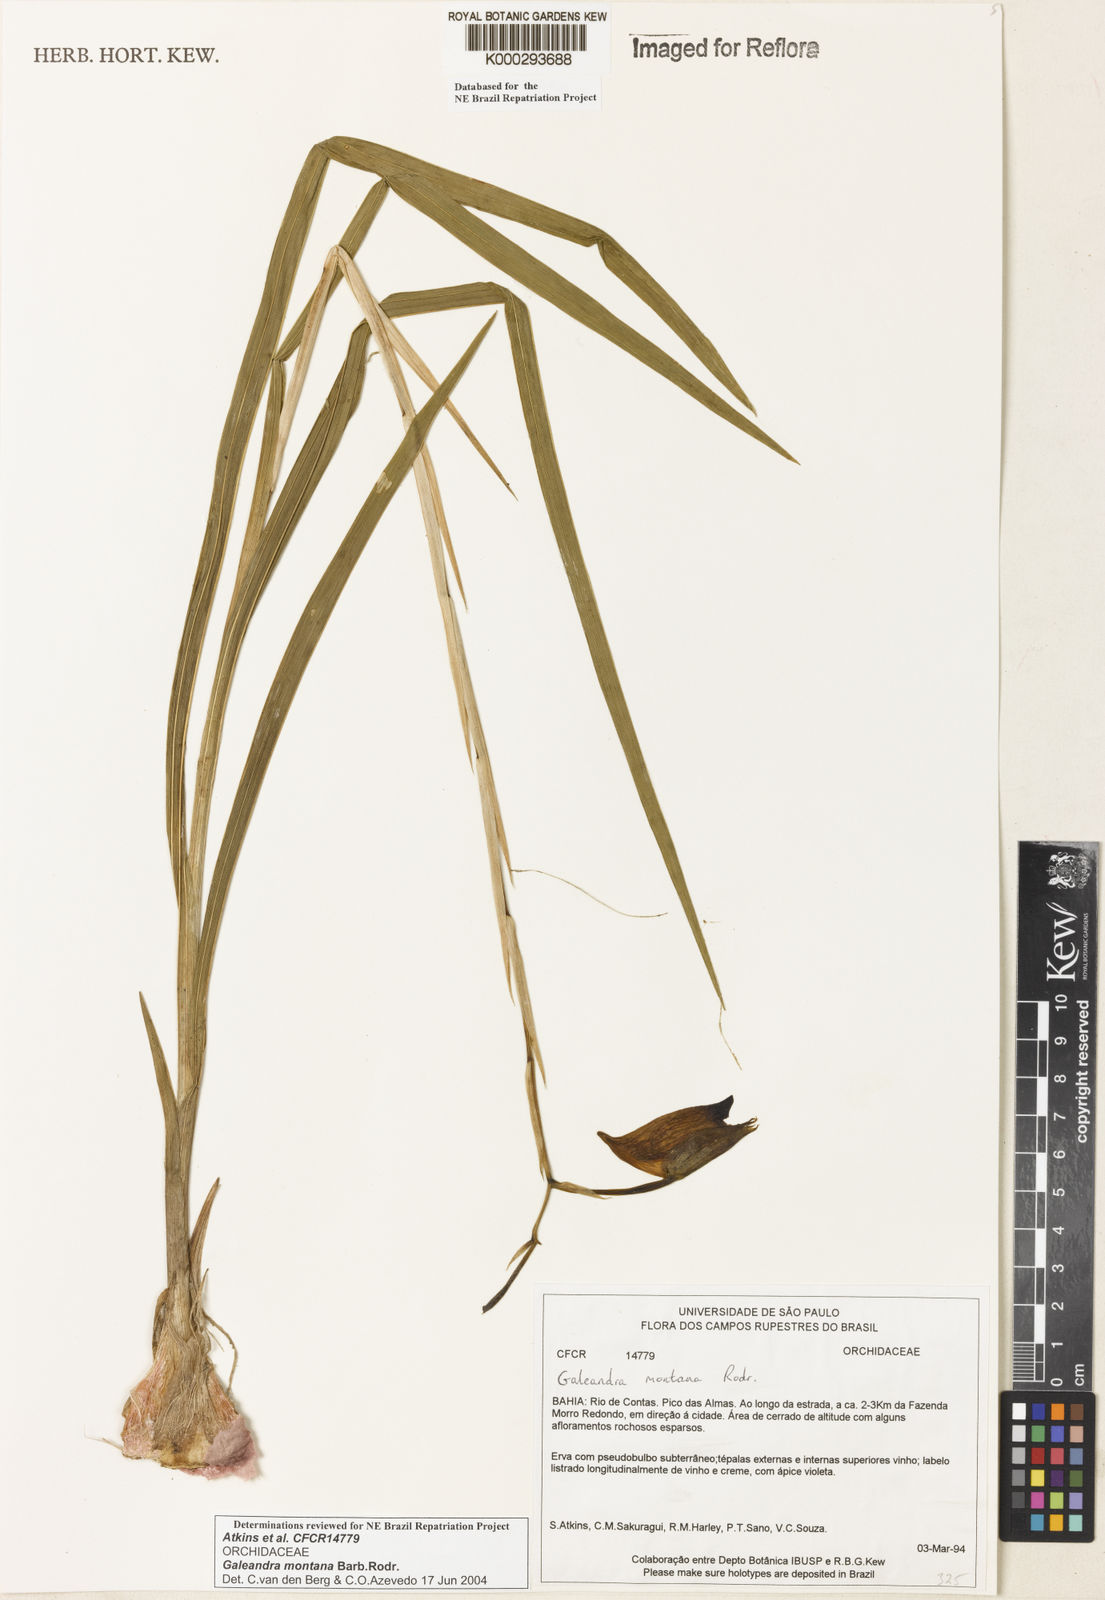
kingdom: Plantae
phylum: Tracheophyta
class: Liliopsida
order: Asparagales
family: Orchidaceae
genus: Galeandra
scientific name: Galeandra montana
